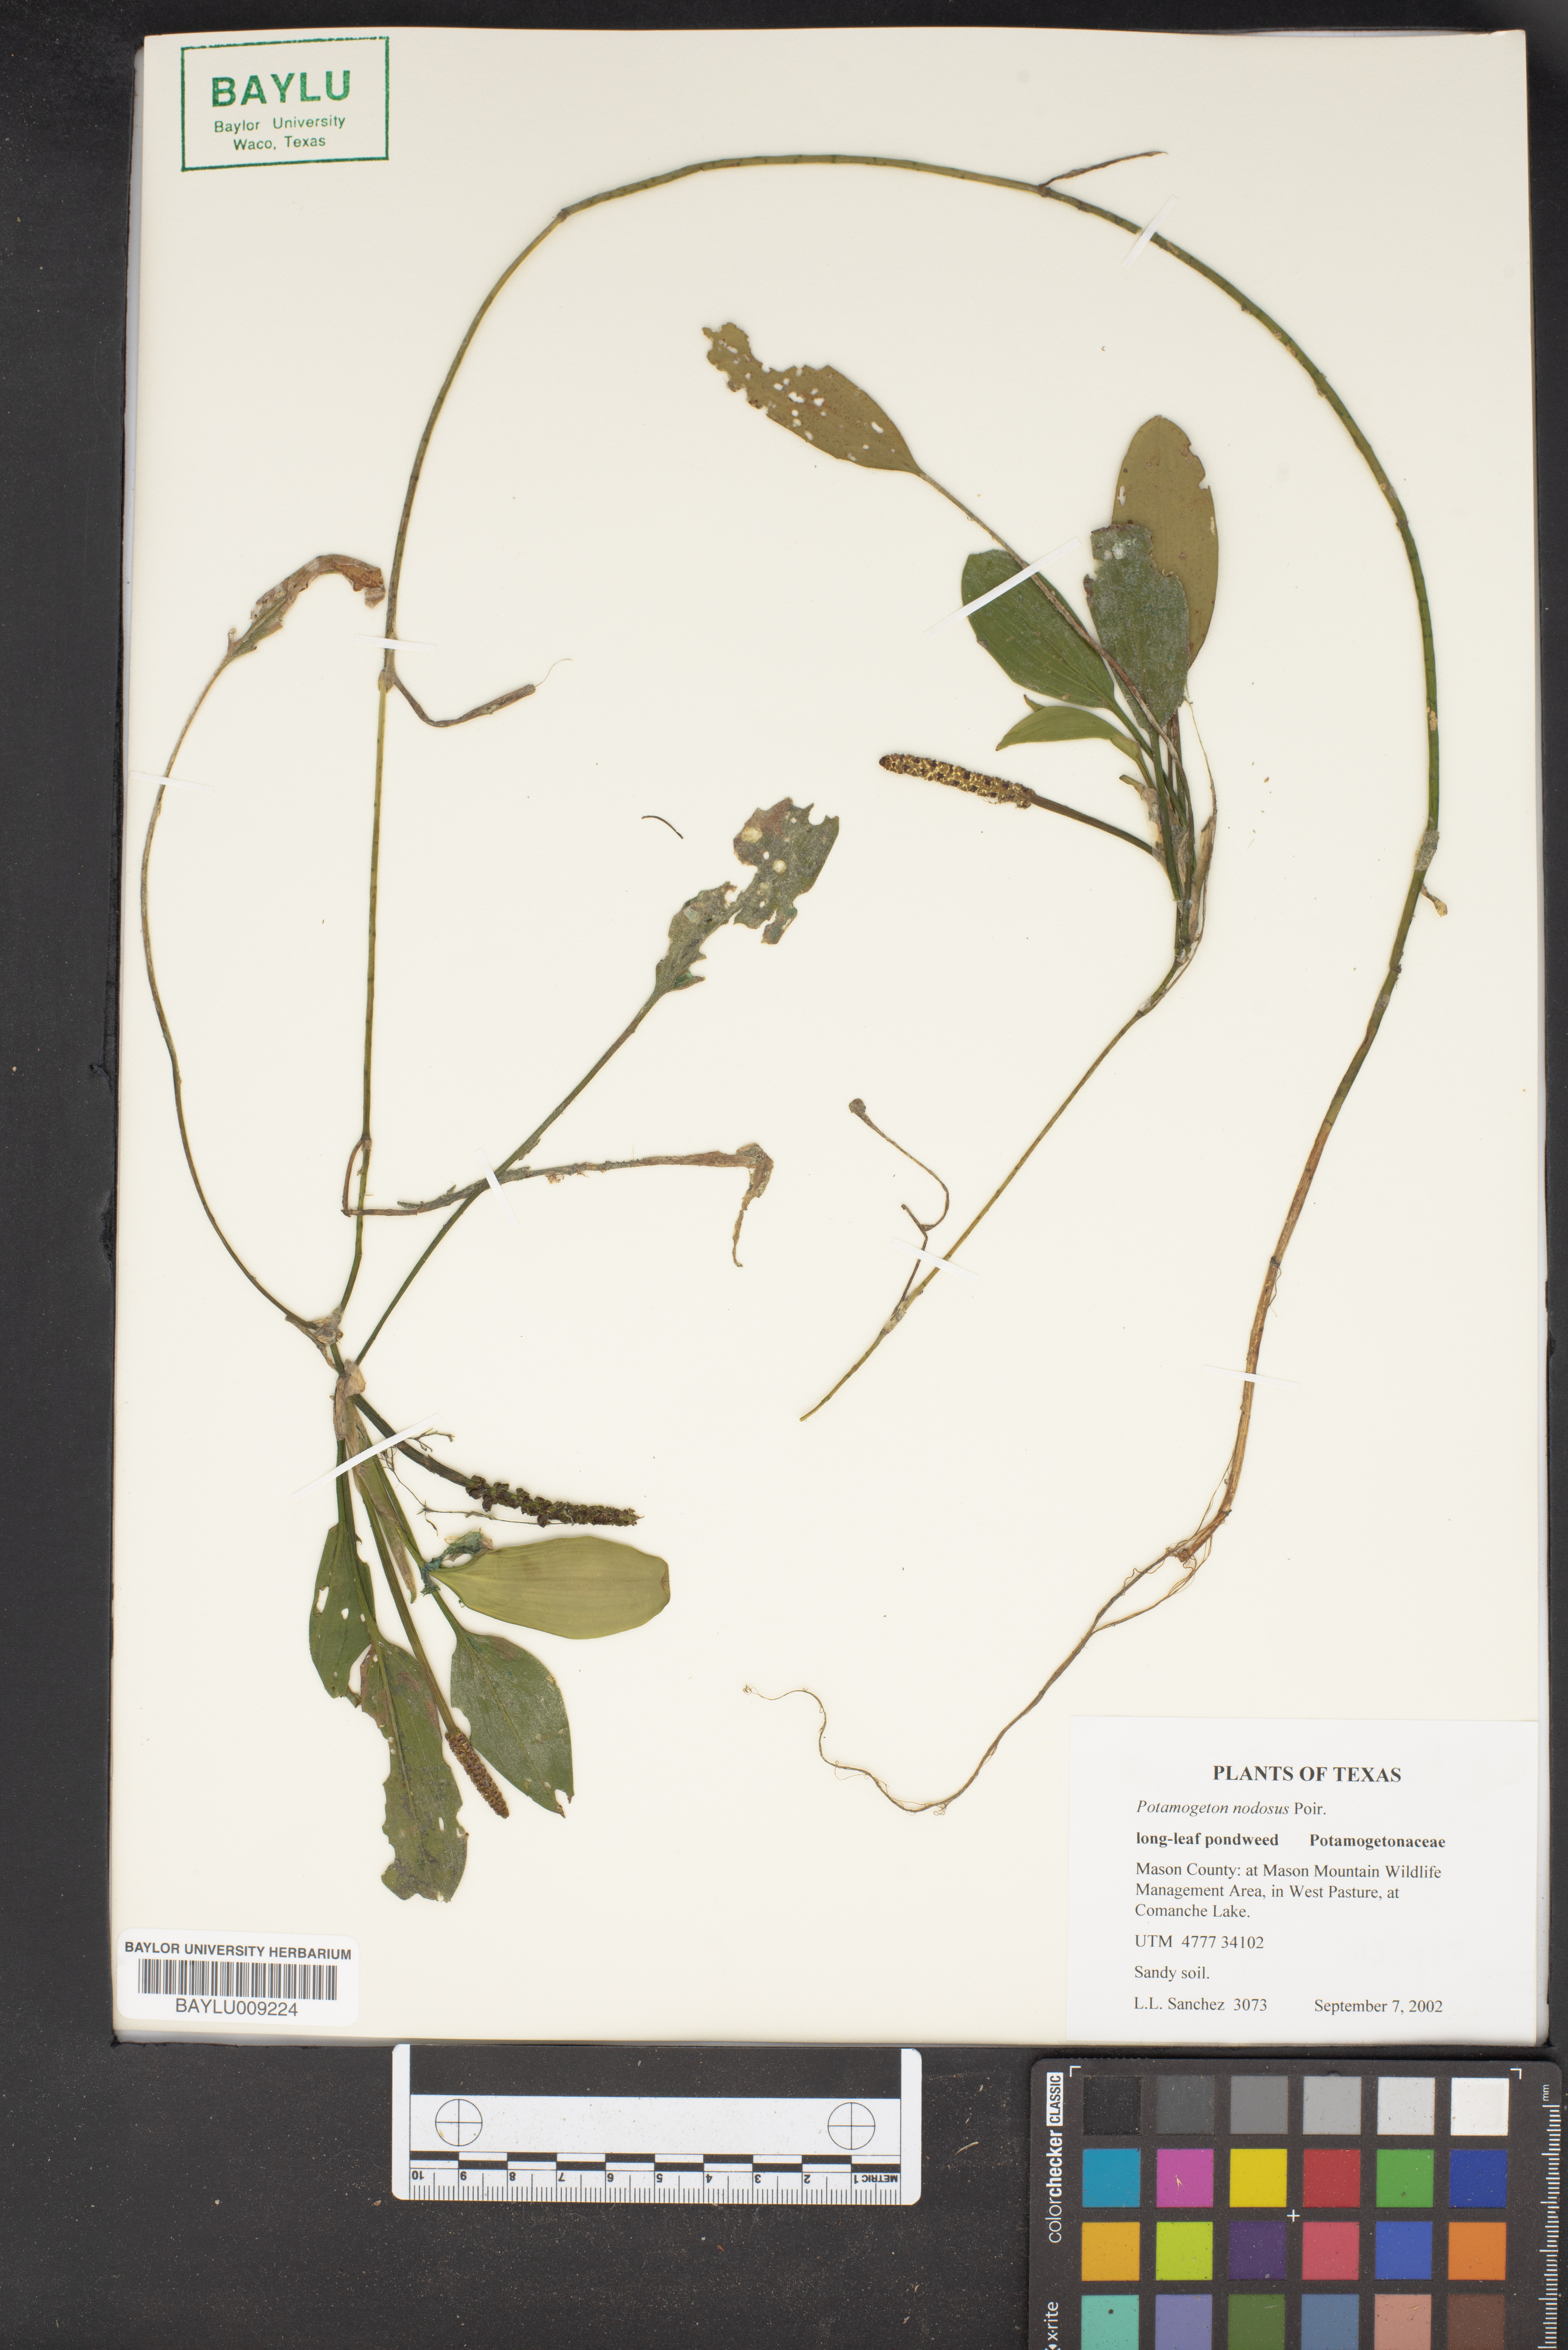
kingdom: Plantae
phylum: Tracheophyta
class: Liliopsida
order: Alismatales
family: Potamogetonaceae
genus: Potamogeton
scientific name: Potamogeton nodosus
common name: Loddon pondweed
